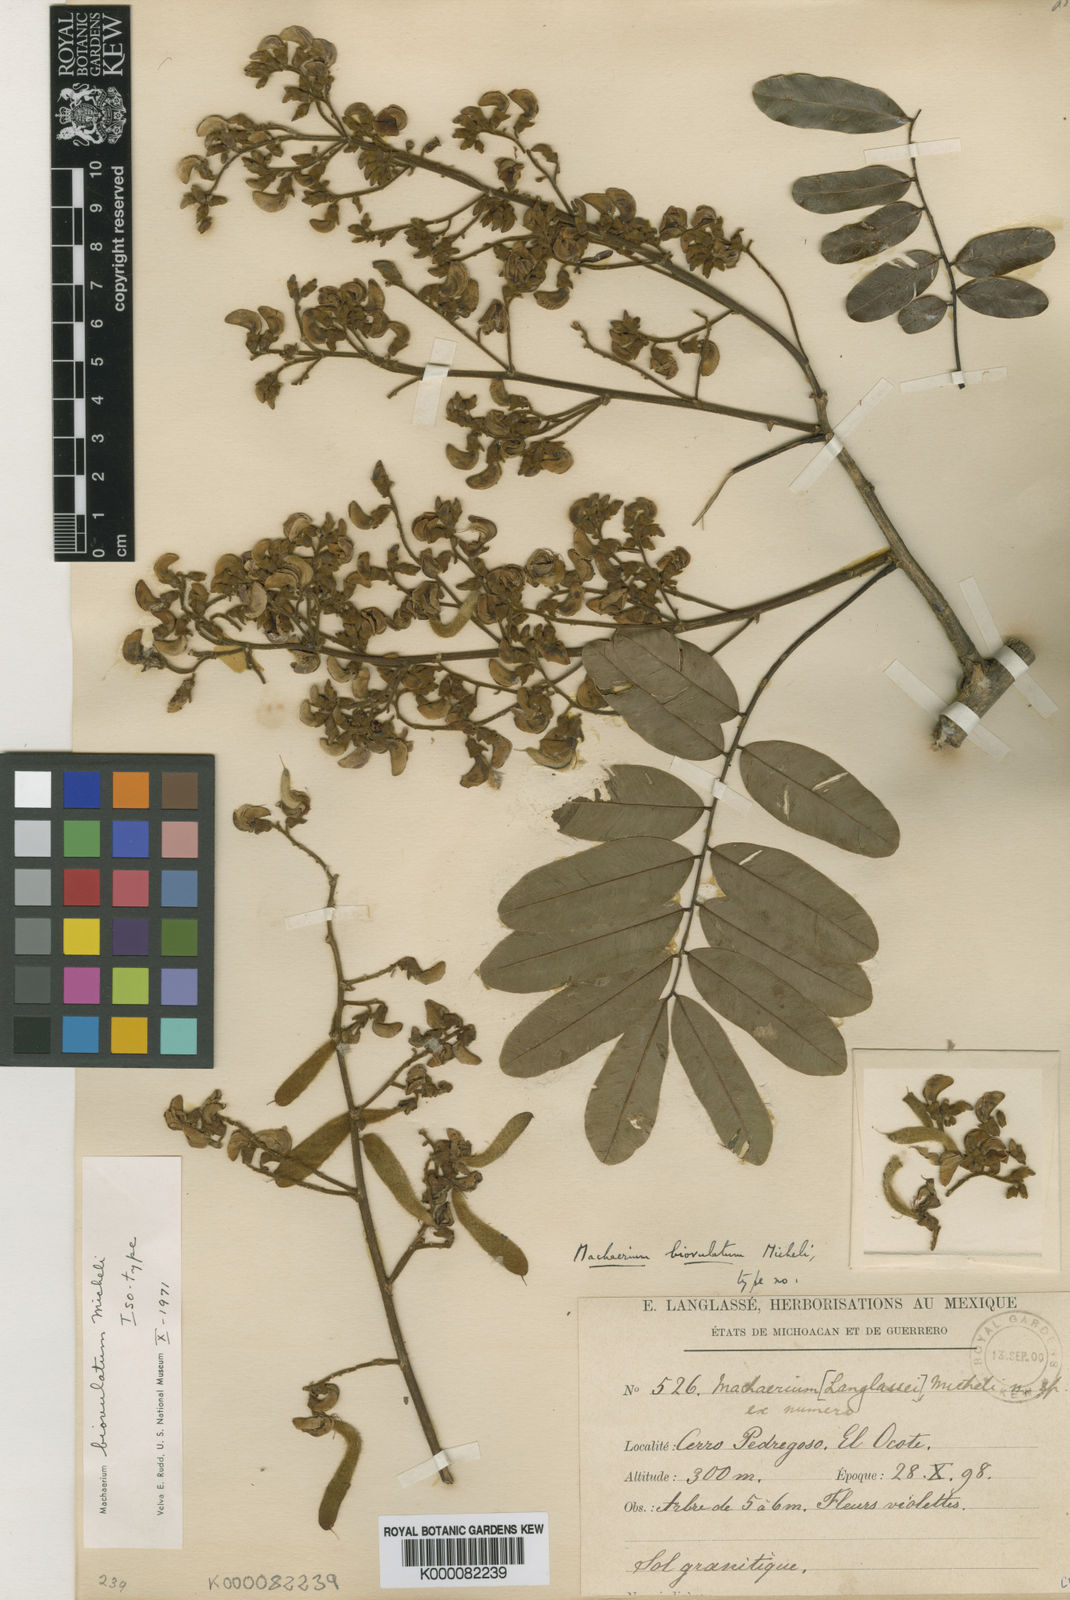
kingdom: Plantae
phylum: Tracheophyta
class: Magnoliopsida
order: Fabales
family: Fabaceae
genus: Machaerium
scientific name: Machaerium biovulatum
